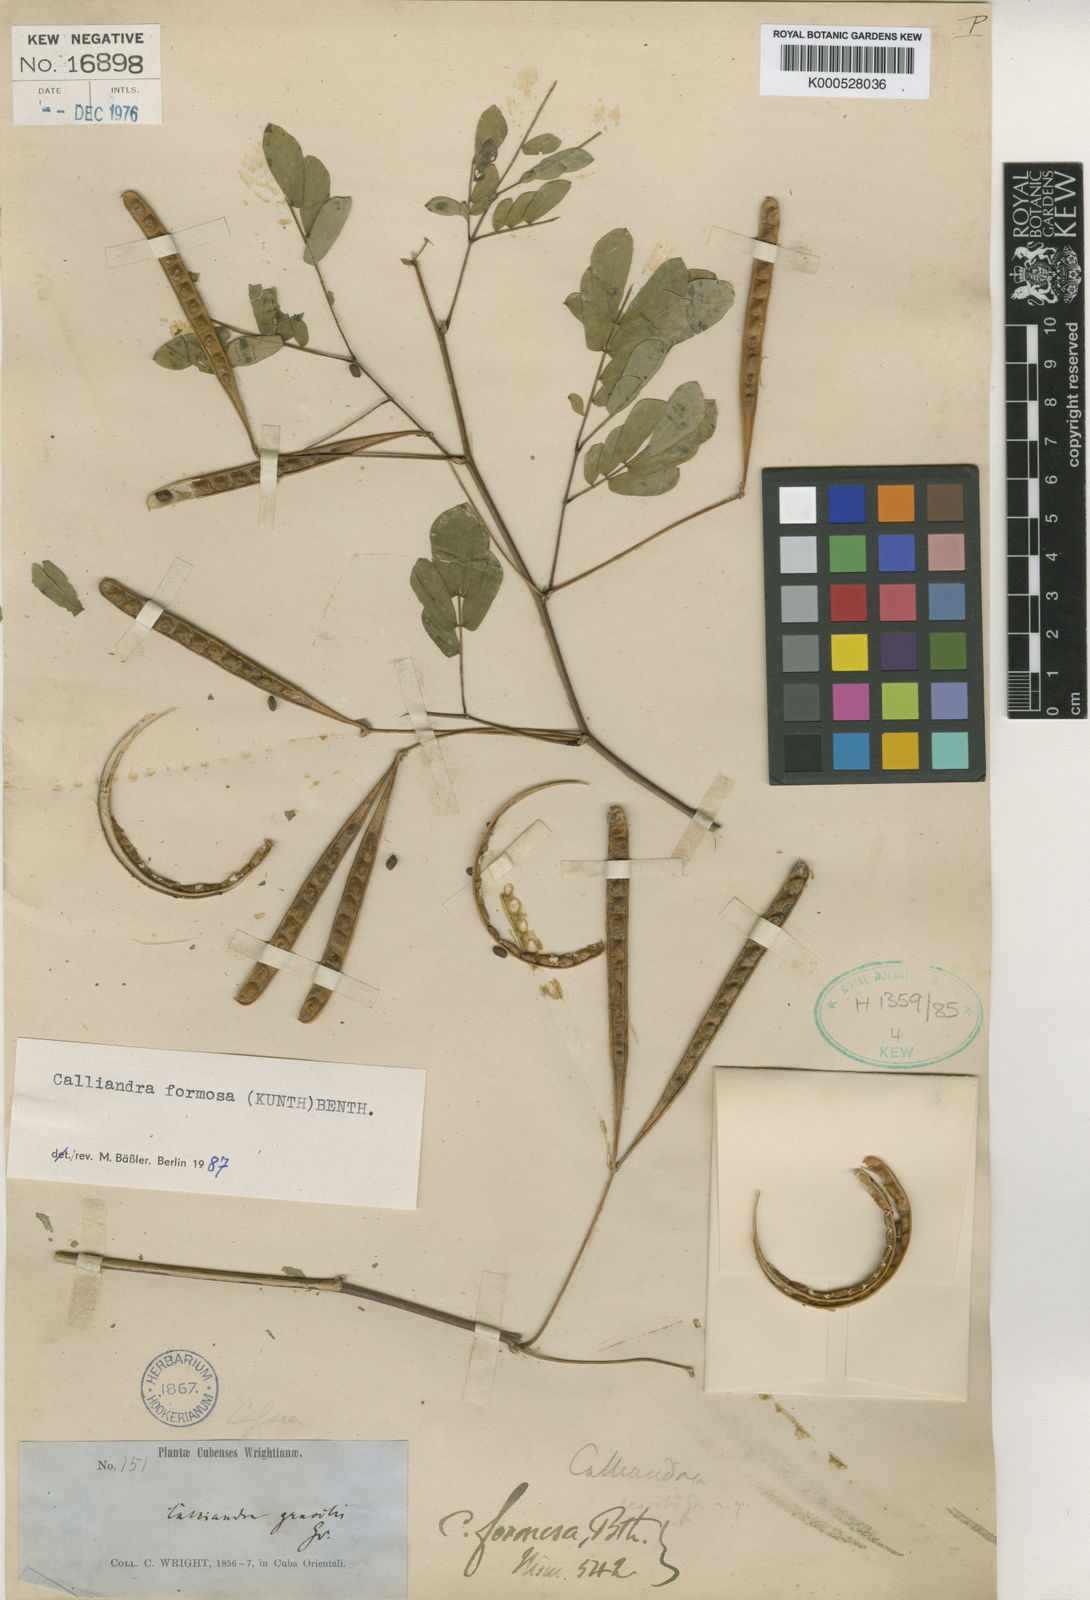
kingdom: Plantae
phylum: Tracheophyta
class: Magnoliopsida
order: Fabales
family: Fabaceae
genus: Zapoteca
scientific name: Zapoteca gracilis
